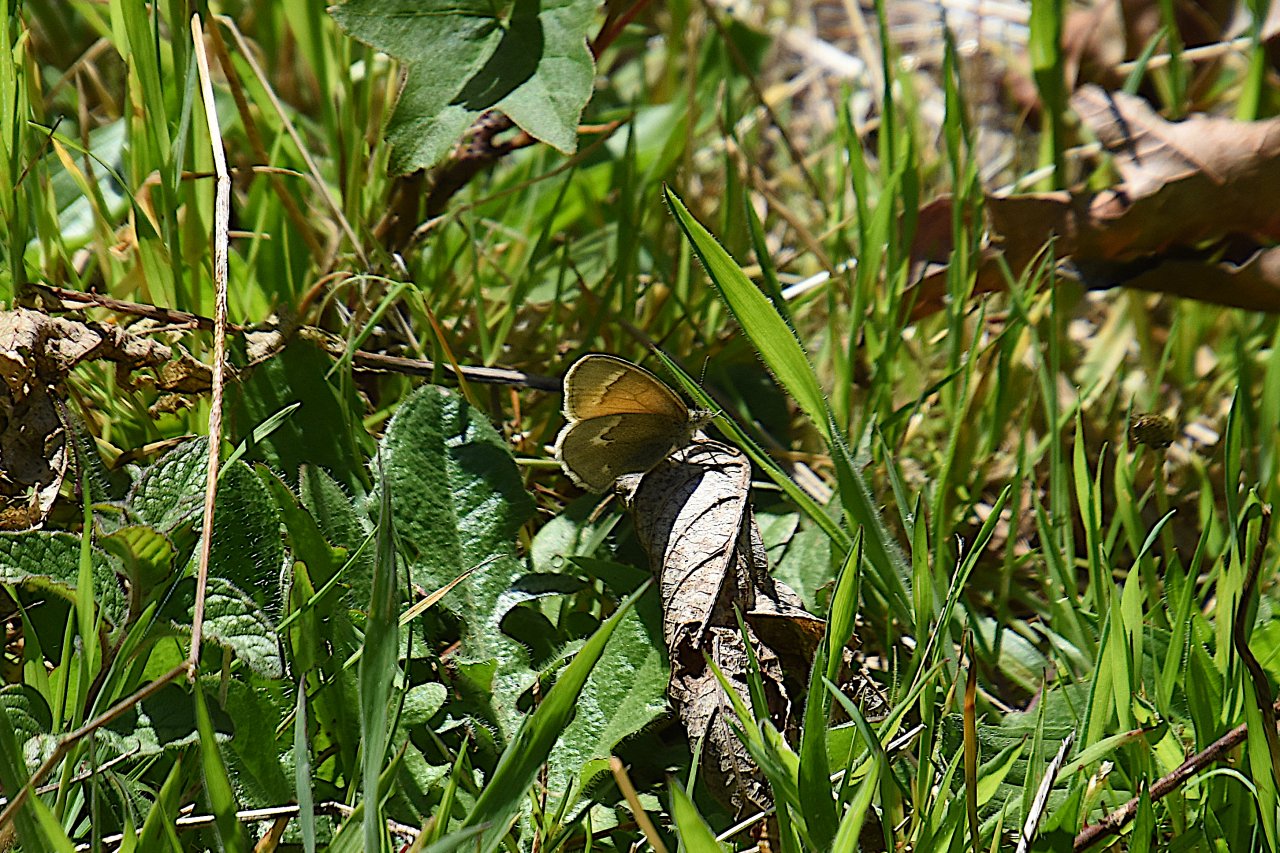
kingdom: Animalia
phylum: Arthropoda
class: Insecta
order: Lepidoptera
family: Nymphalidae
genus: Coenonympha
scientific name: Coenonympha tullia
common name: Large Heath
